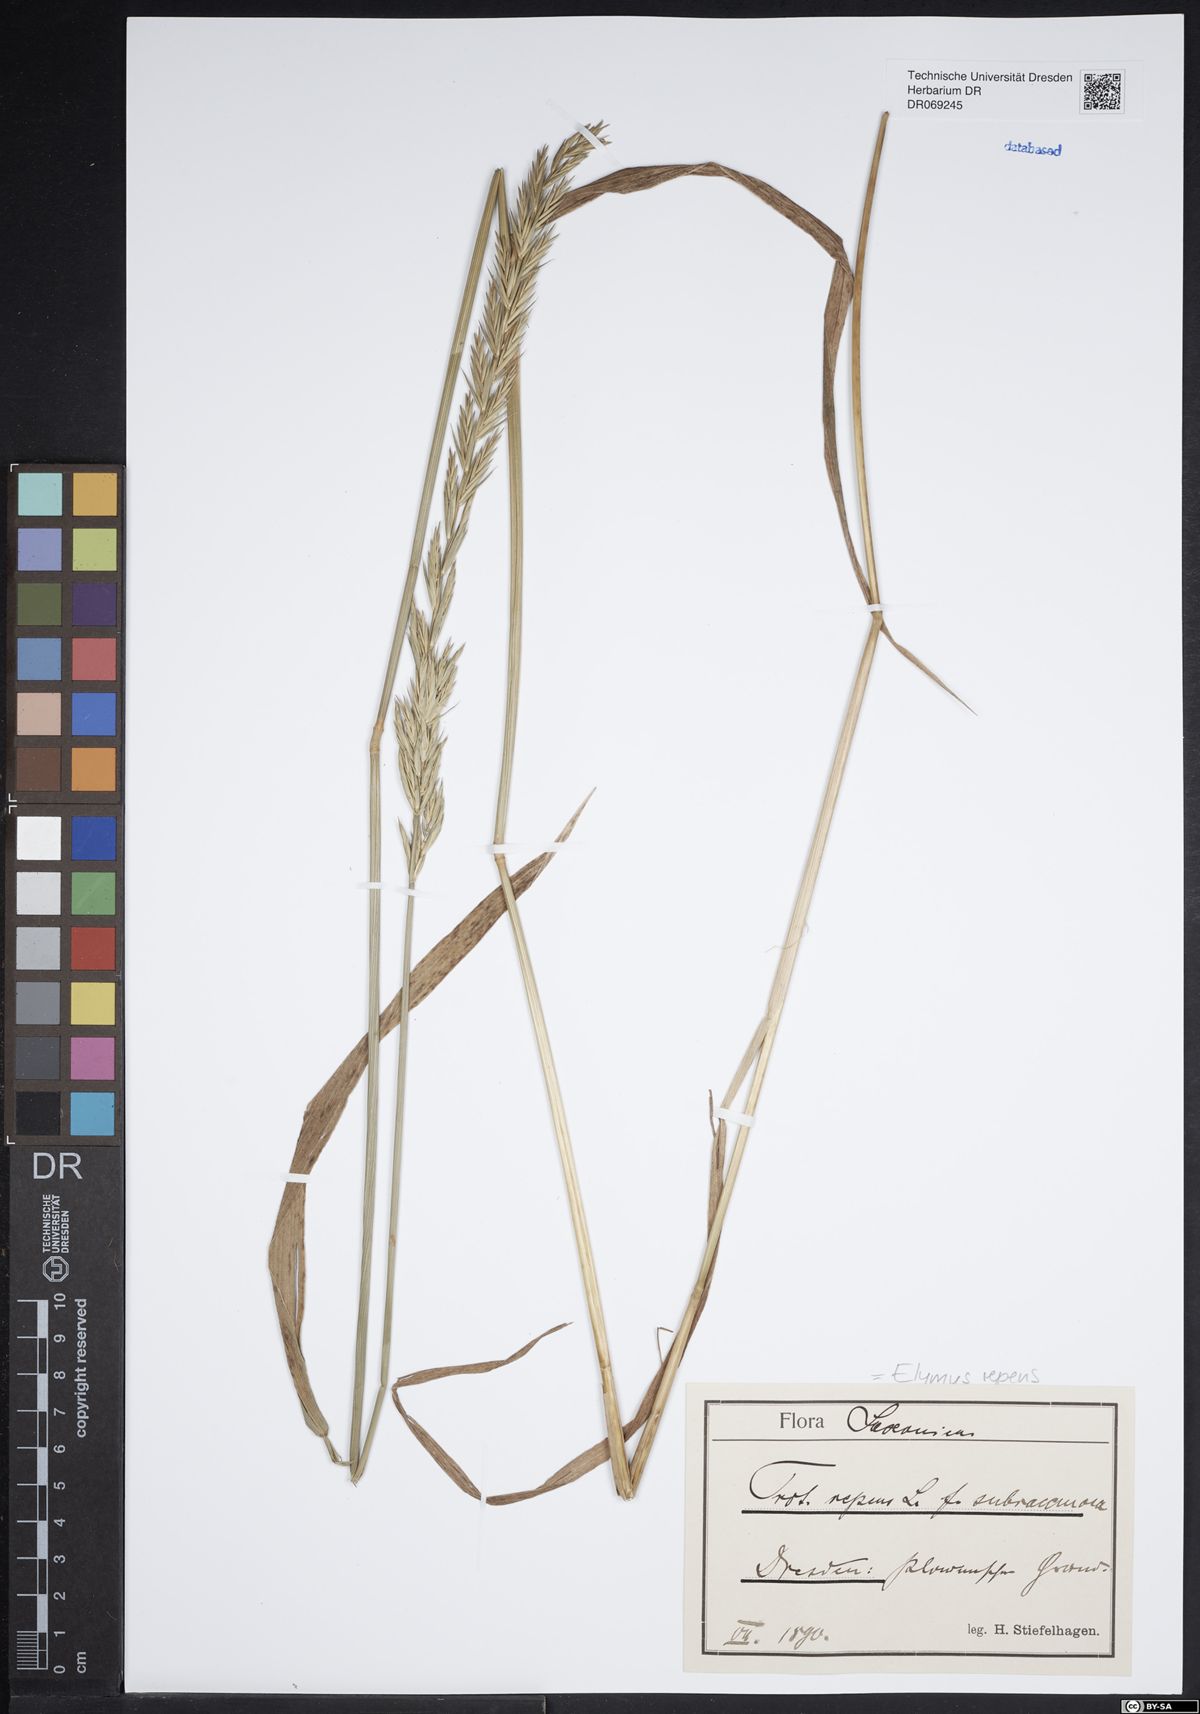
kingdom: Plantae
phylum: Tracheophyta
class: Liliopsida
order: Poales
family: Poaceae
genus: Elymus
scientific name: Elymus repens
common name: Quackgrass
